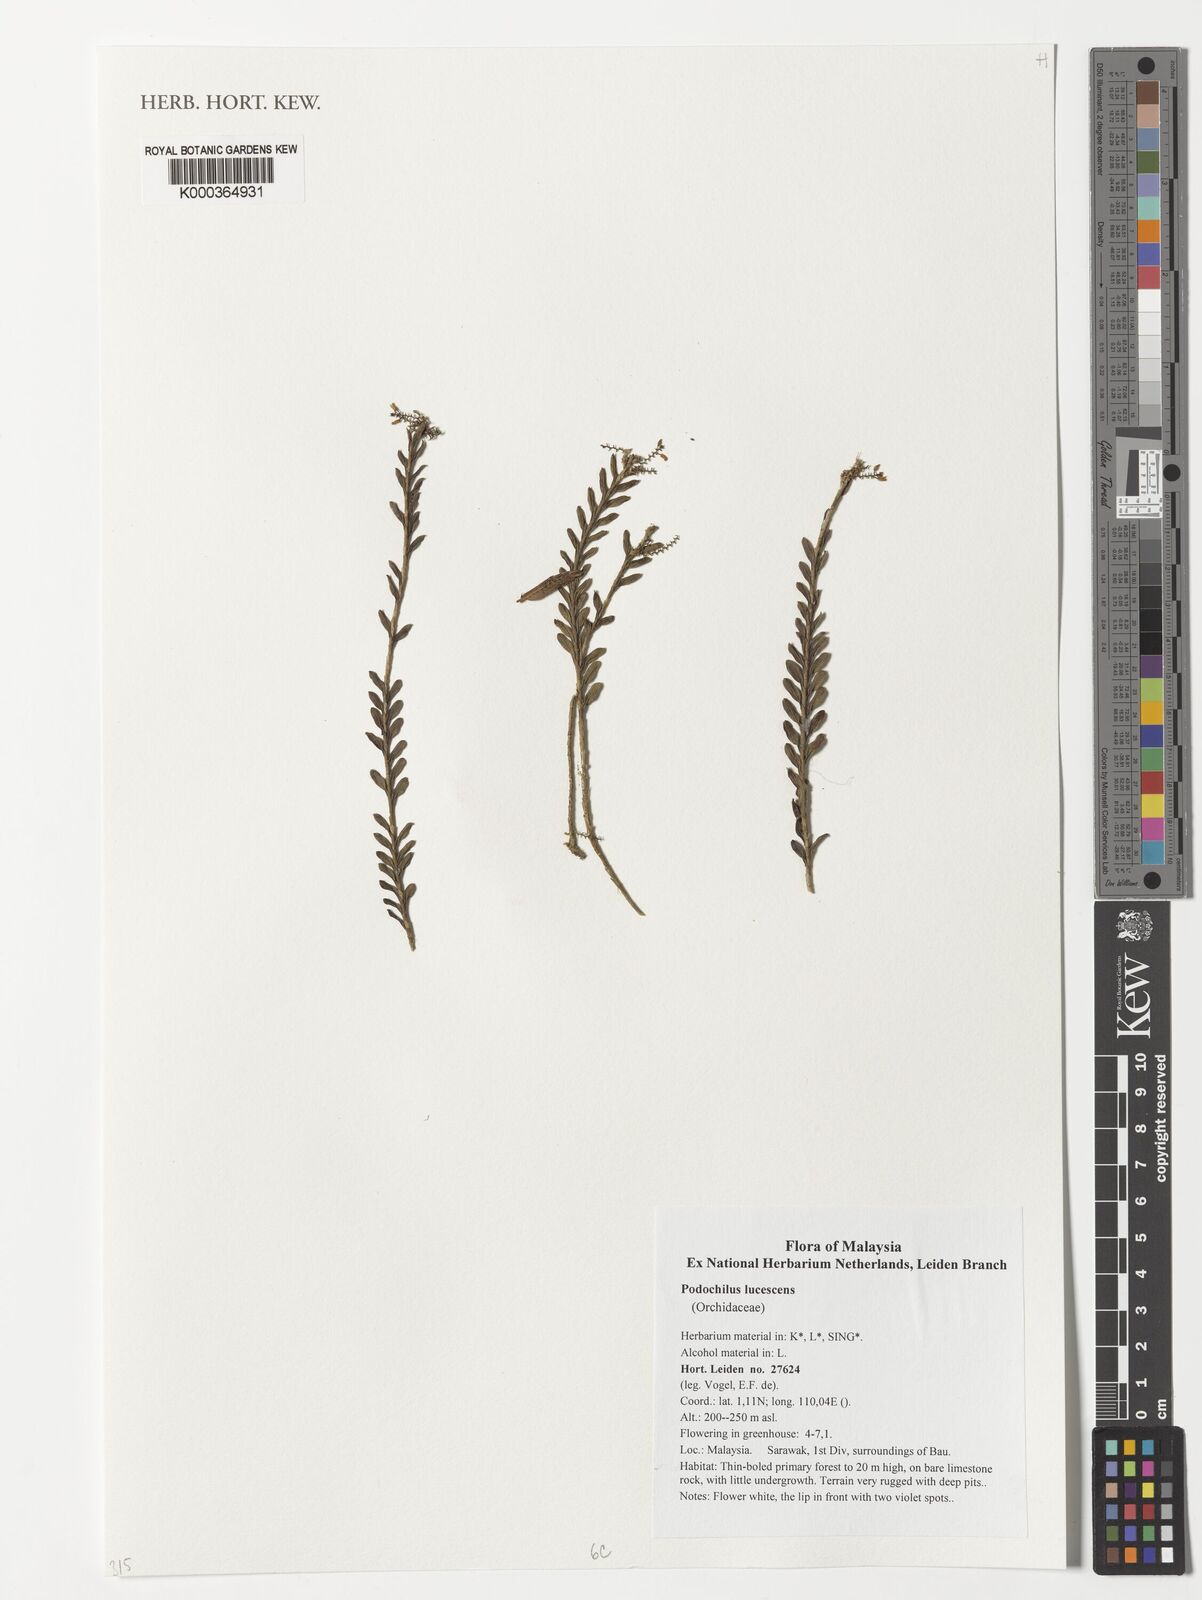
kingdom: Plantae
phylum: Tracheophyta
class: Liliopsida
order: Asparagales
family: Orchidaceae
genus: Podochilus
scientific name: Podochilus lucescens
